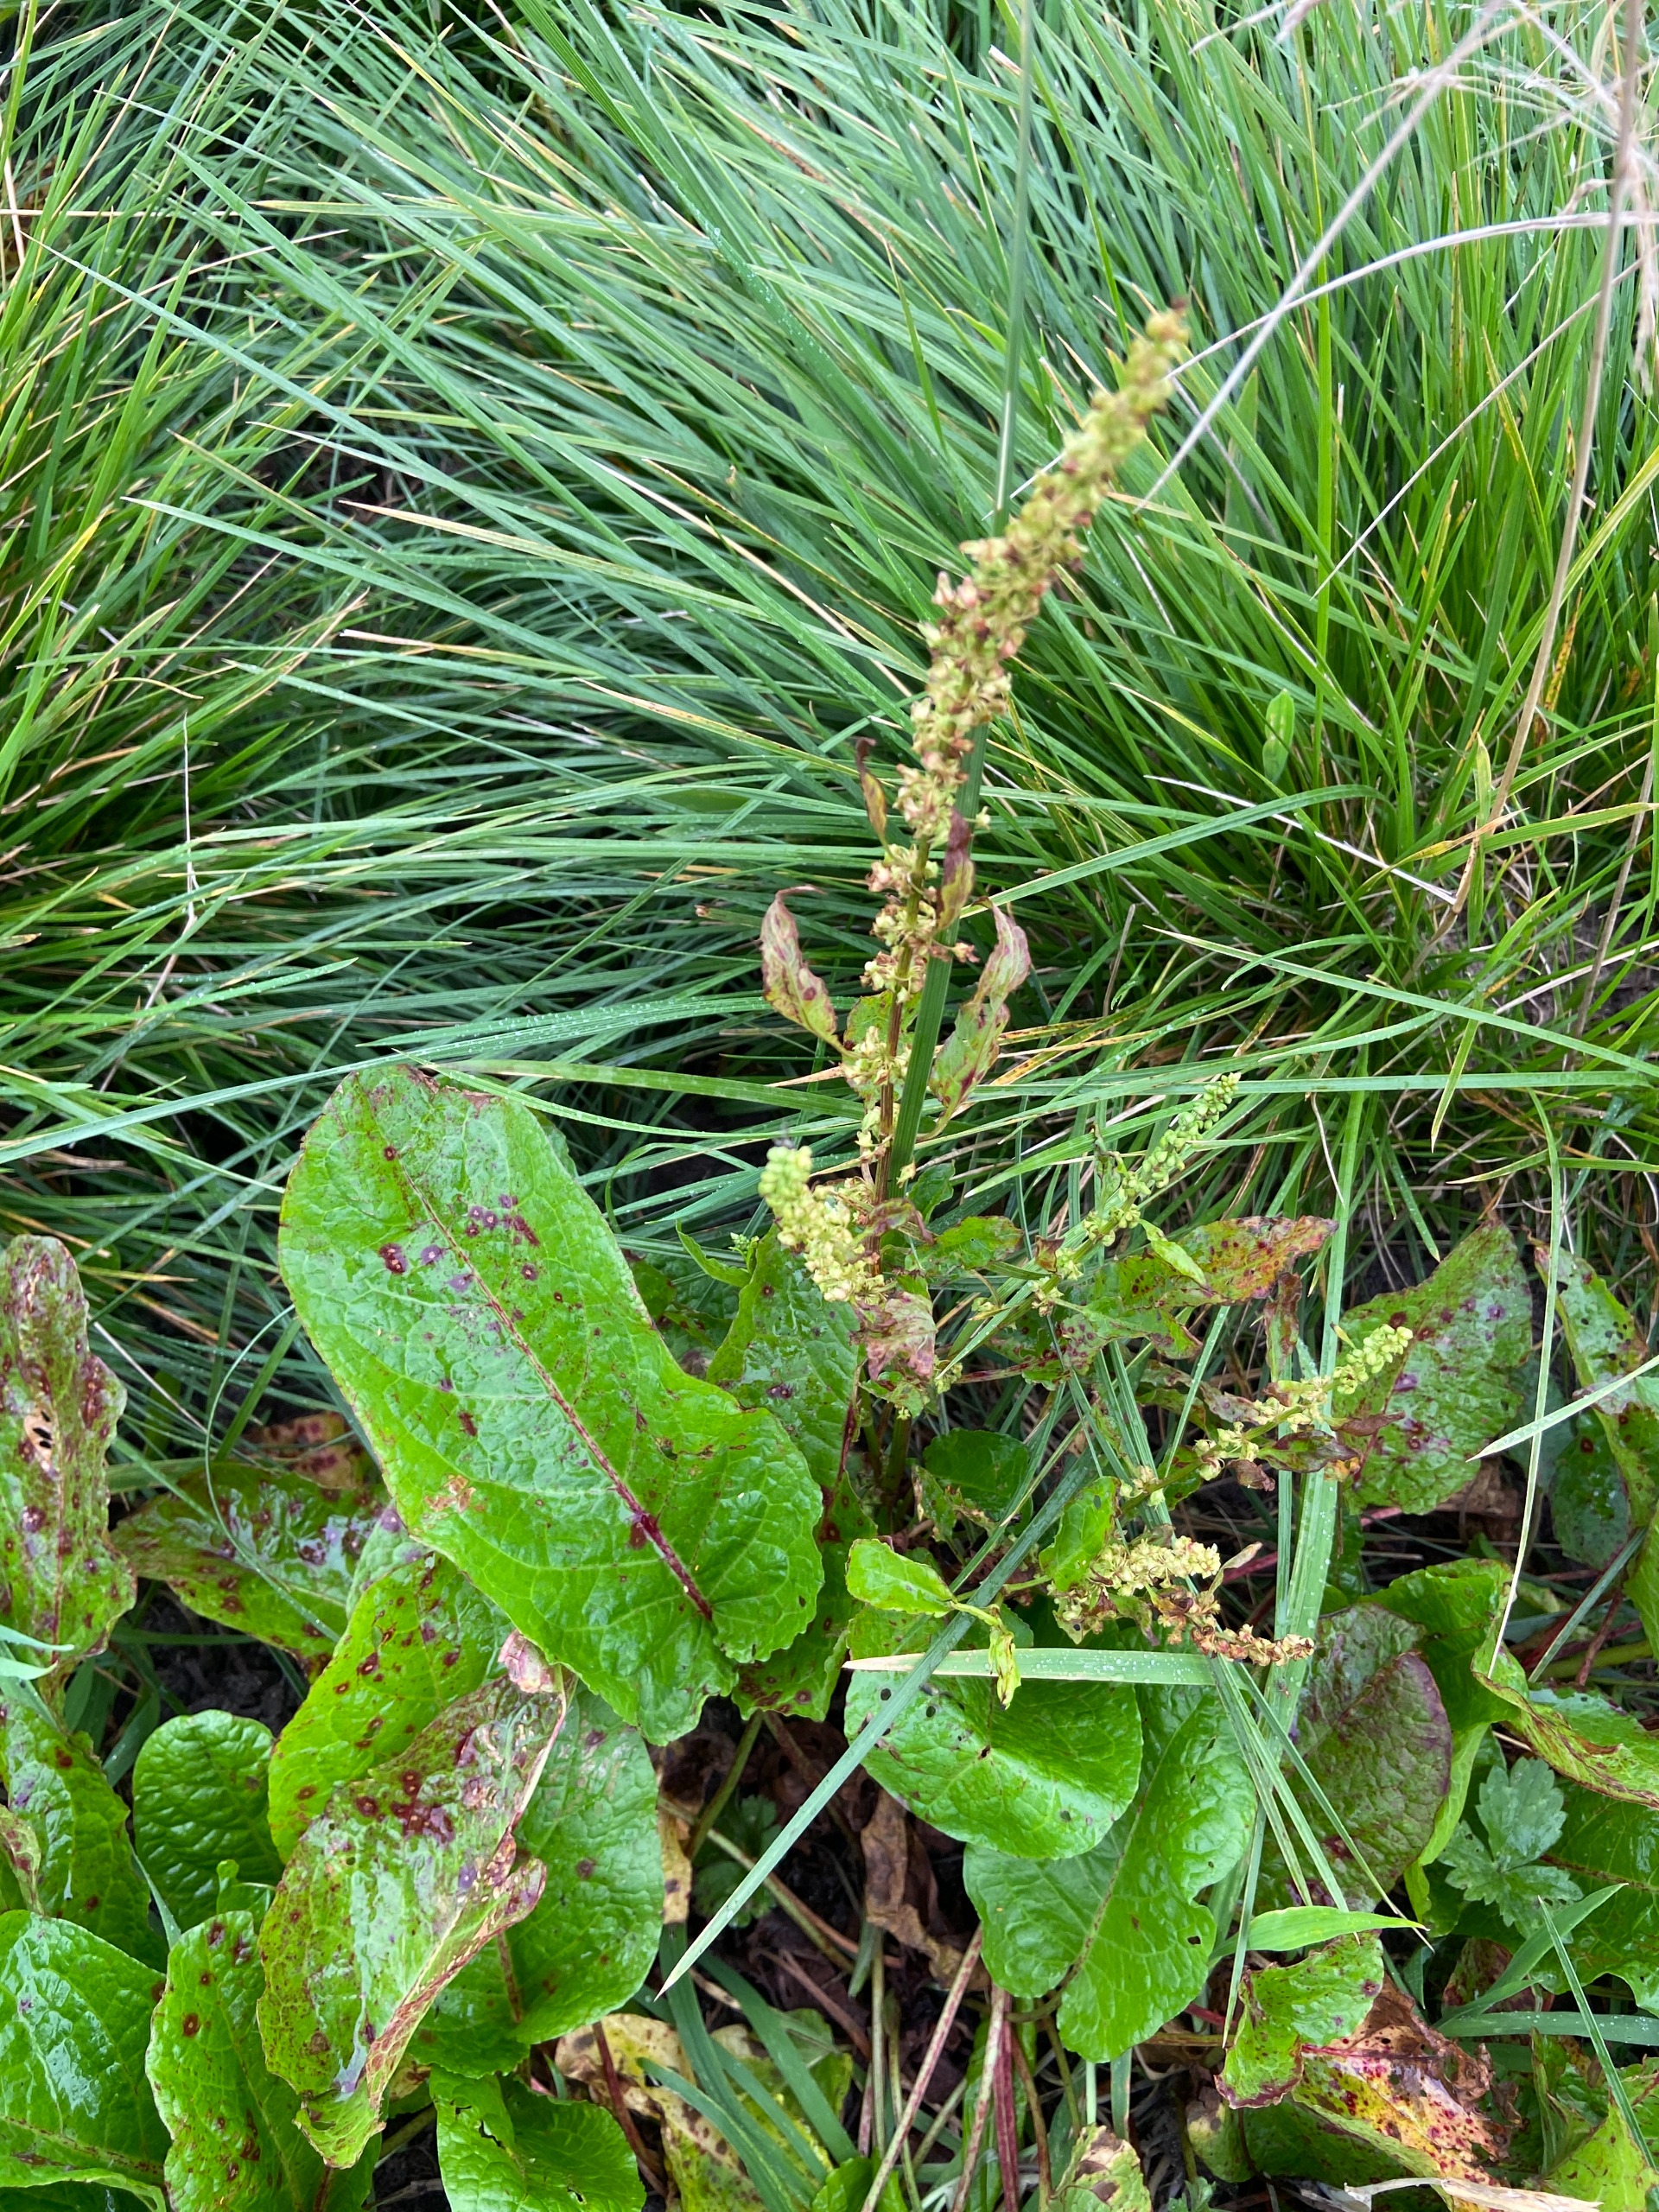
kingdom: Plantae
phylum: Tracheophyta
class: Magnoliopsida
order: Caryophyllales
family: Polygonaceae
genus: Rumex
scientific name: Rumex obtusifolius
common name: Butbladet skræppe
